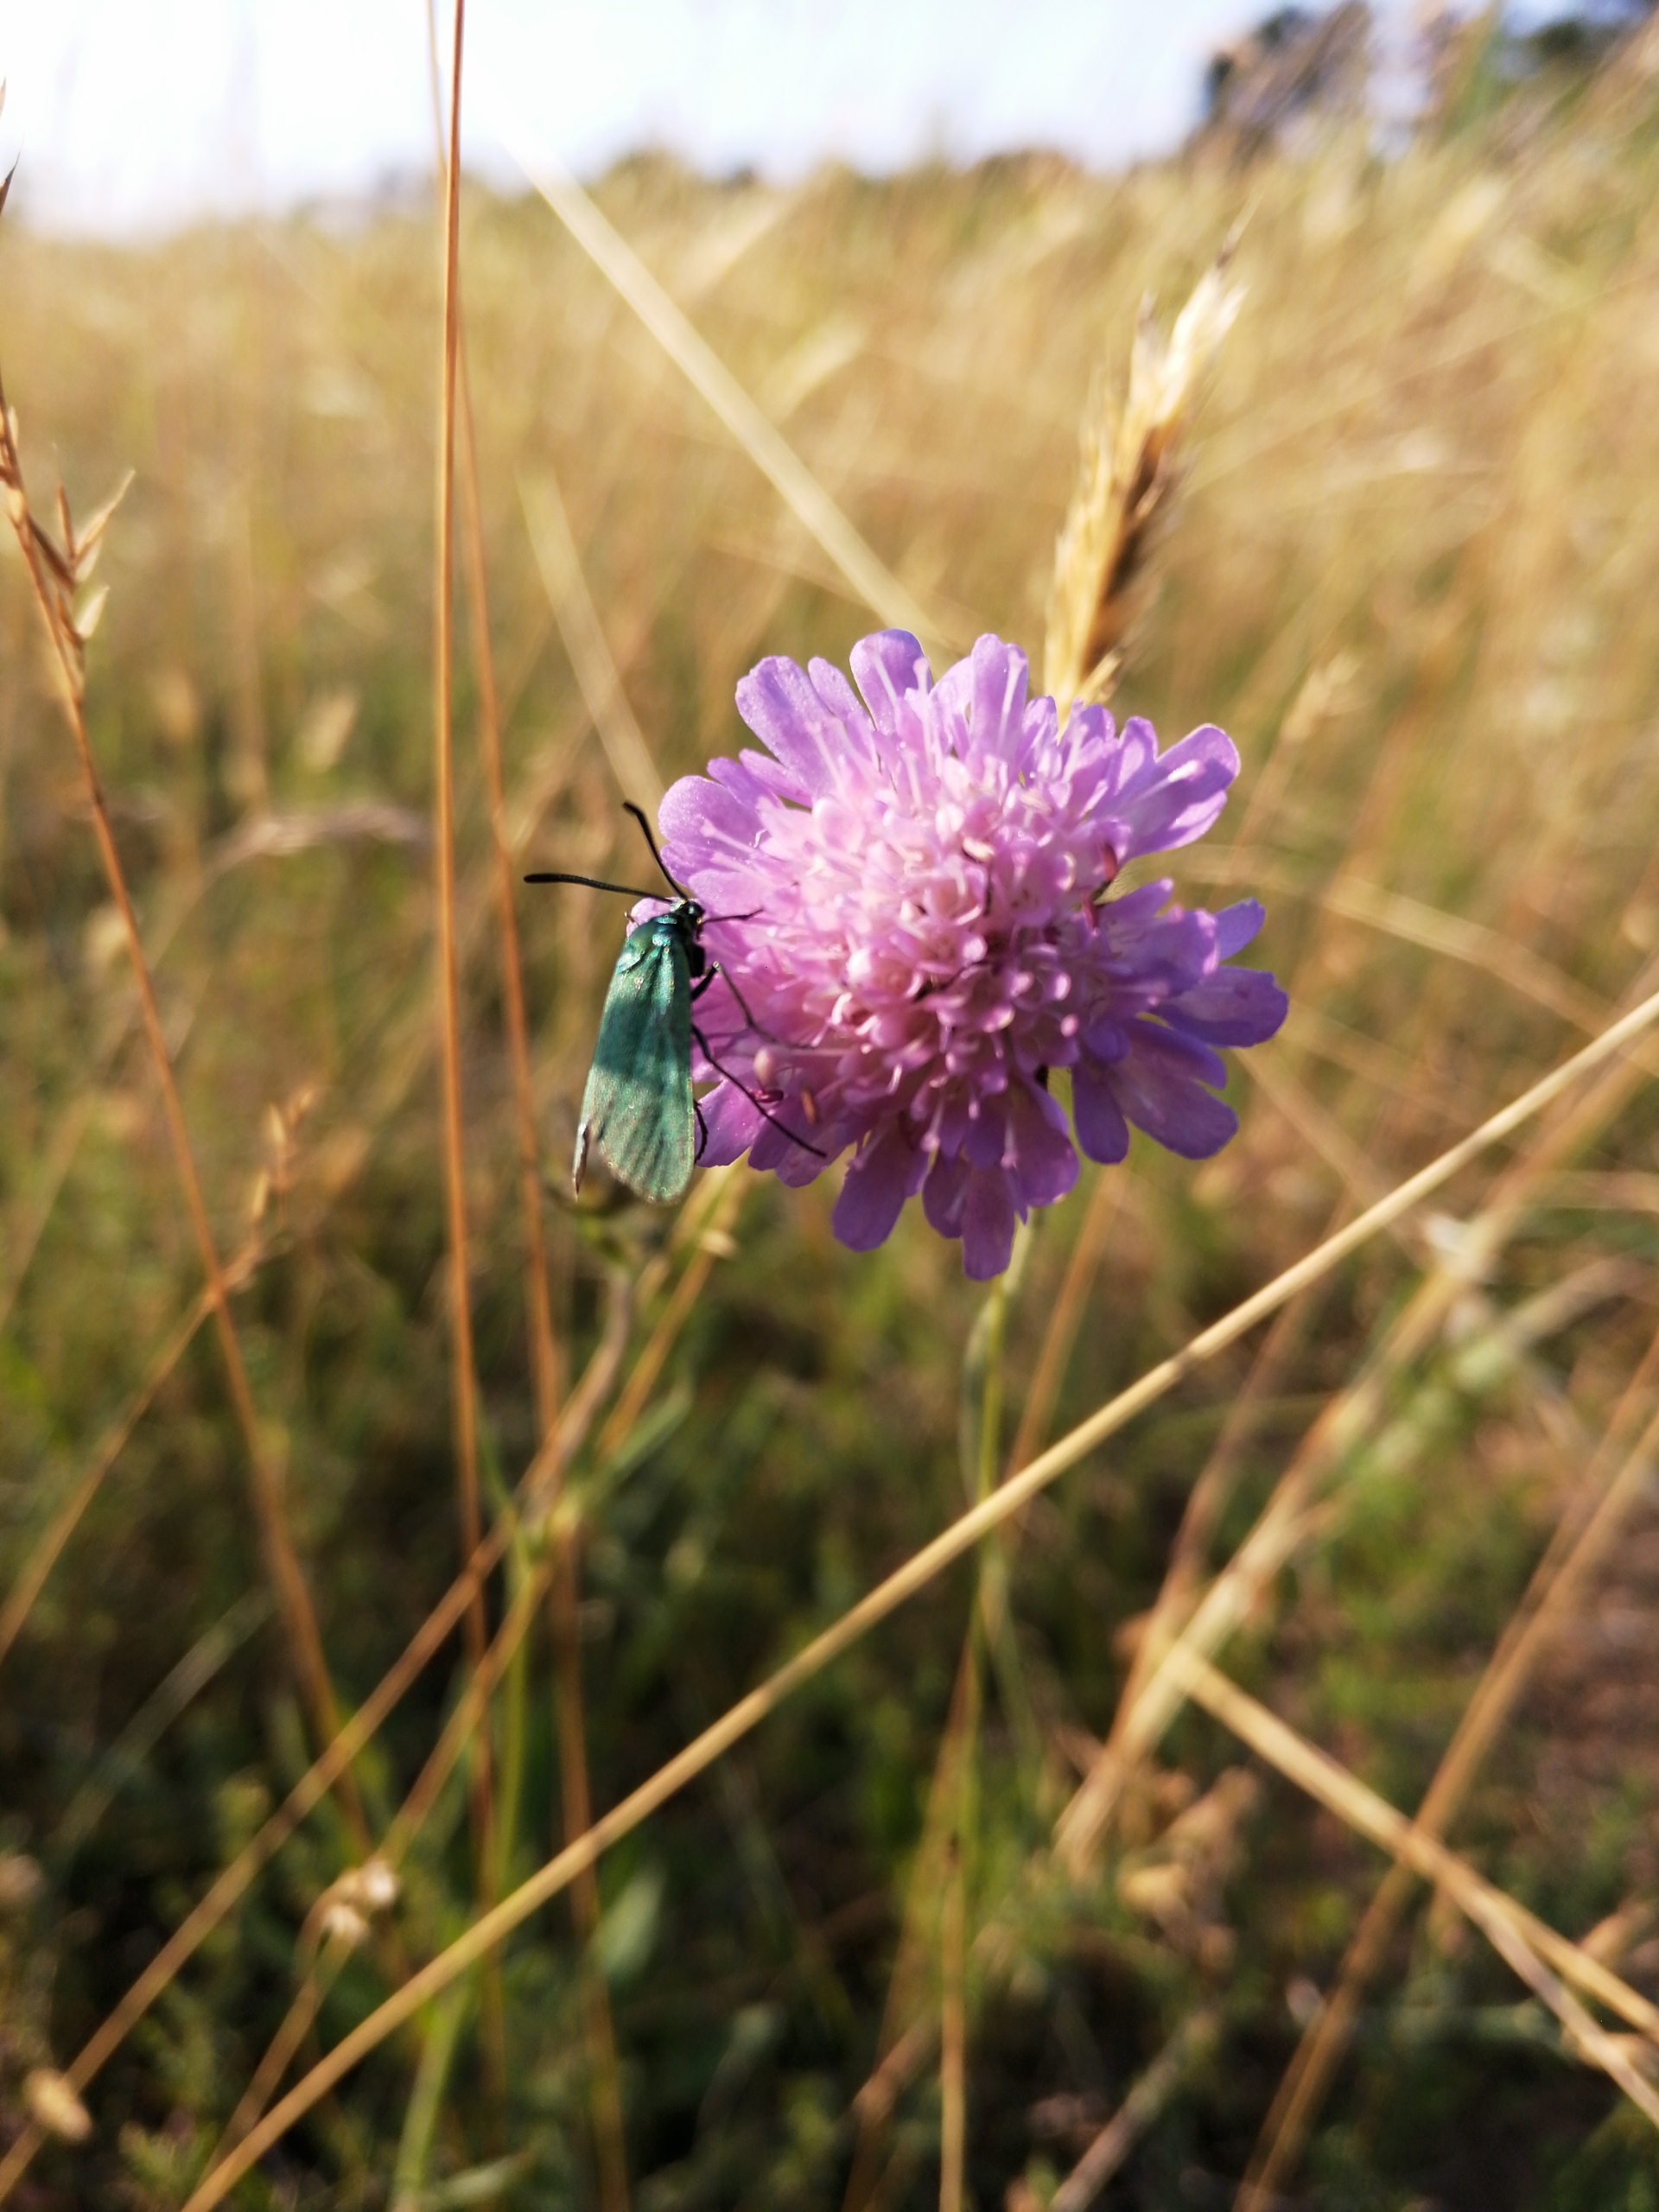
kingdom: Animalia
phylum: Arthropoda
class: Insecta
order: Lepidoptera
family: Zygaenidae
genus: Adscita
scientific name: Adscita statices
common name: Metalvinge
